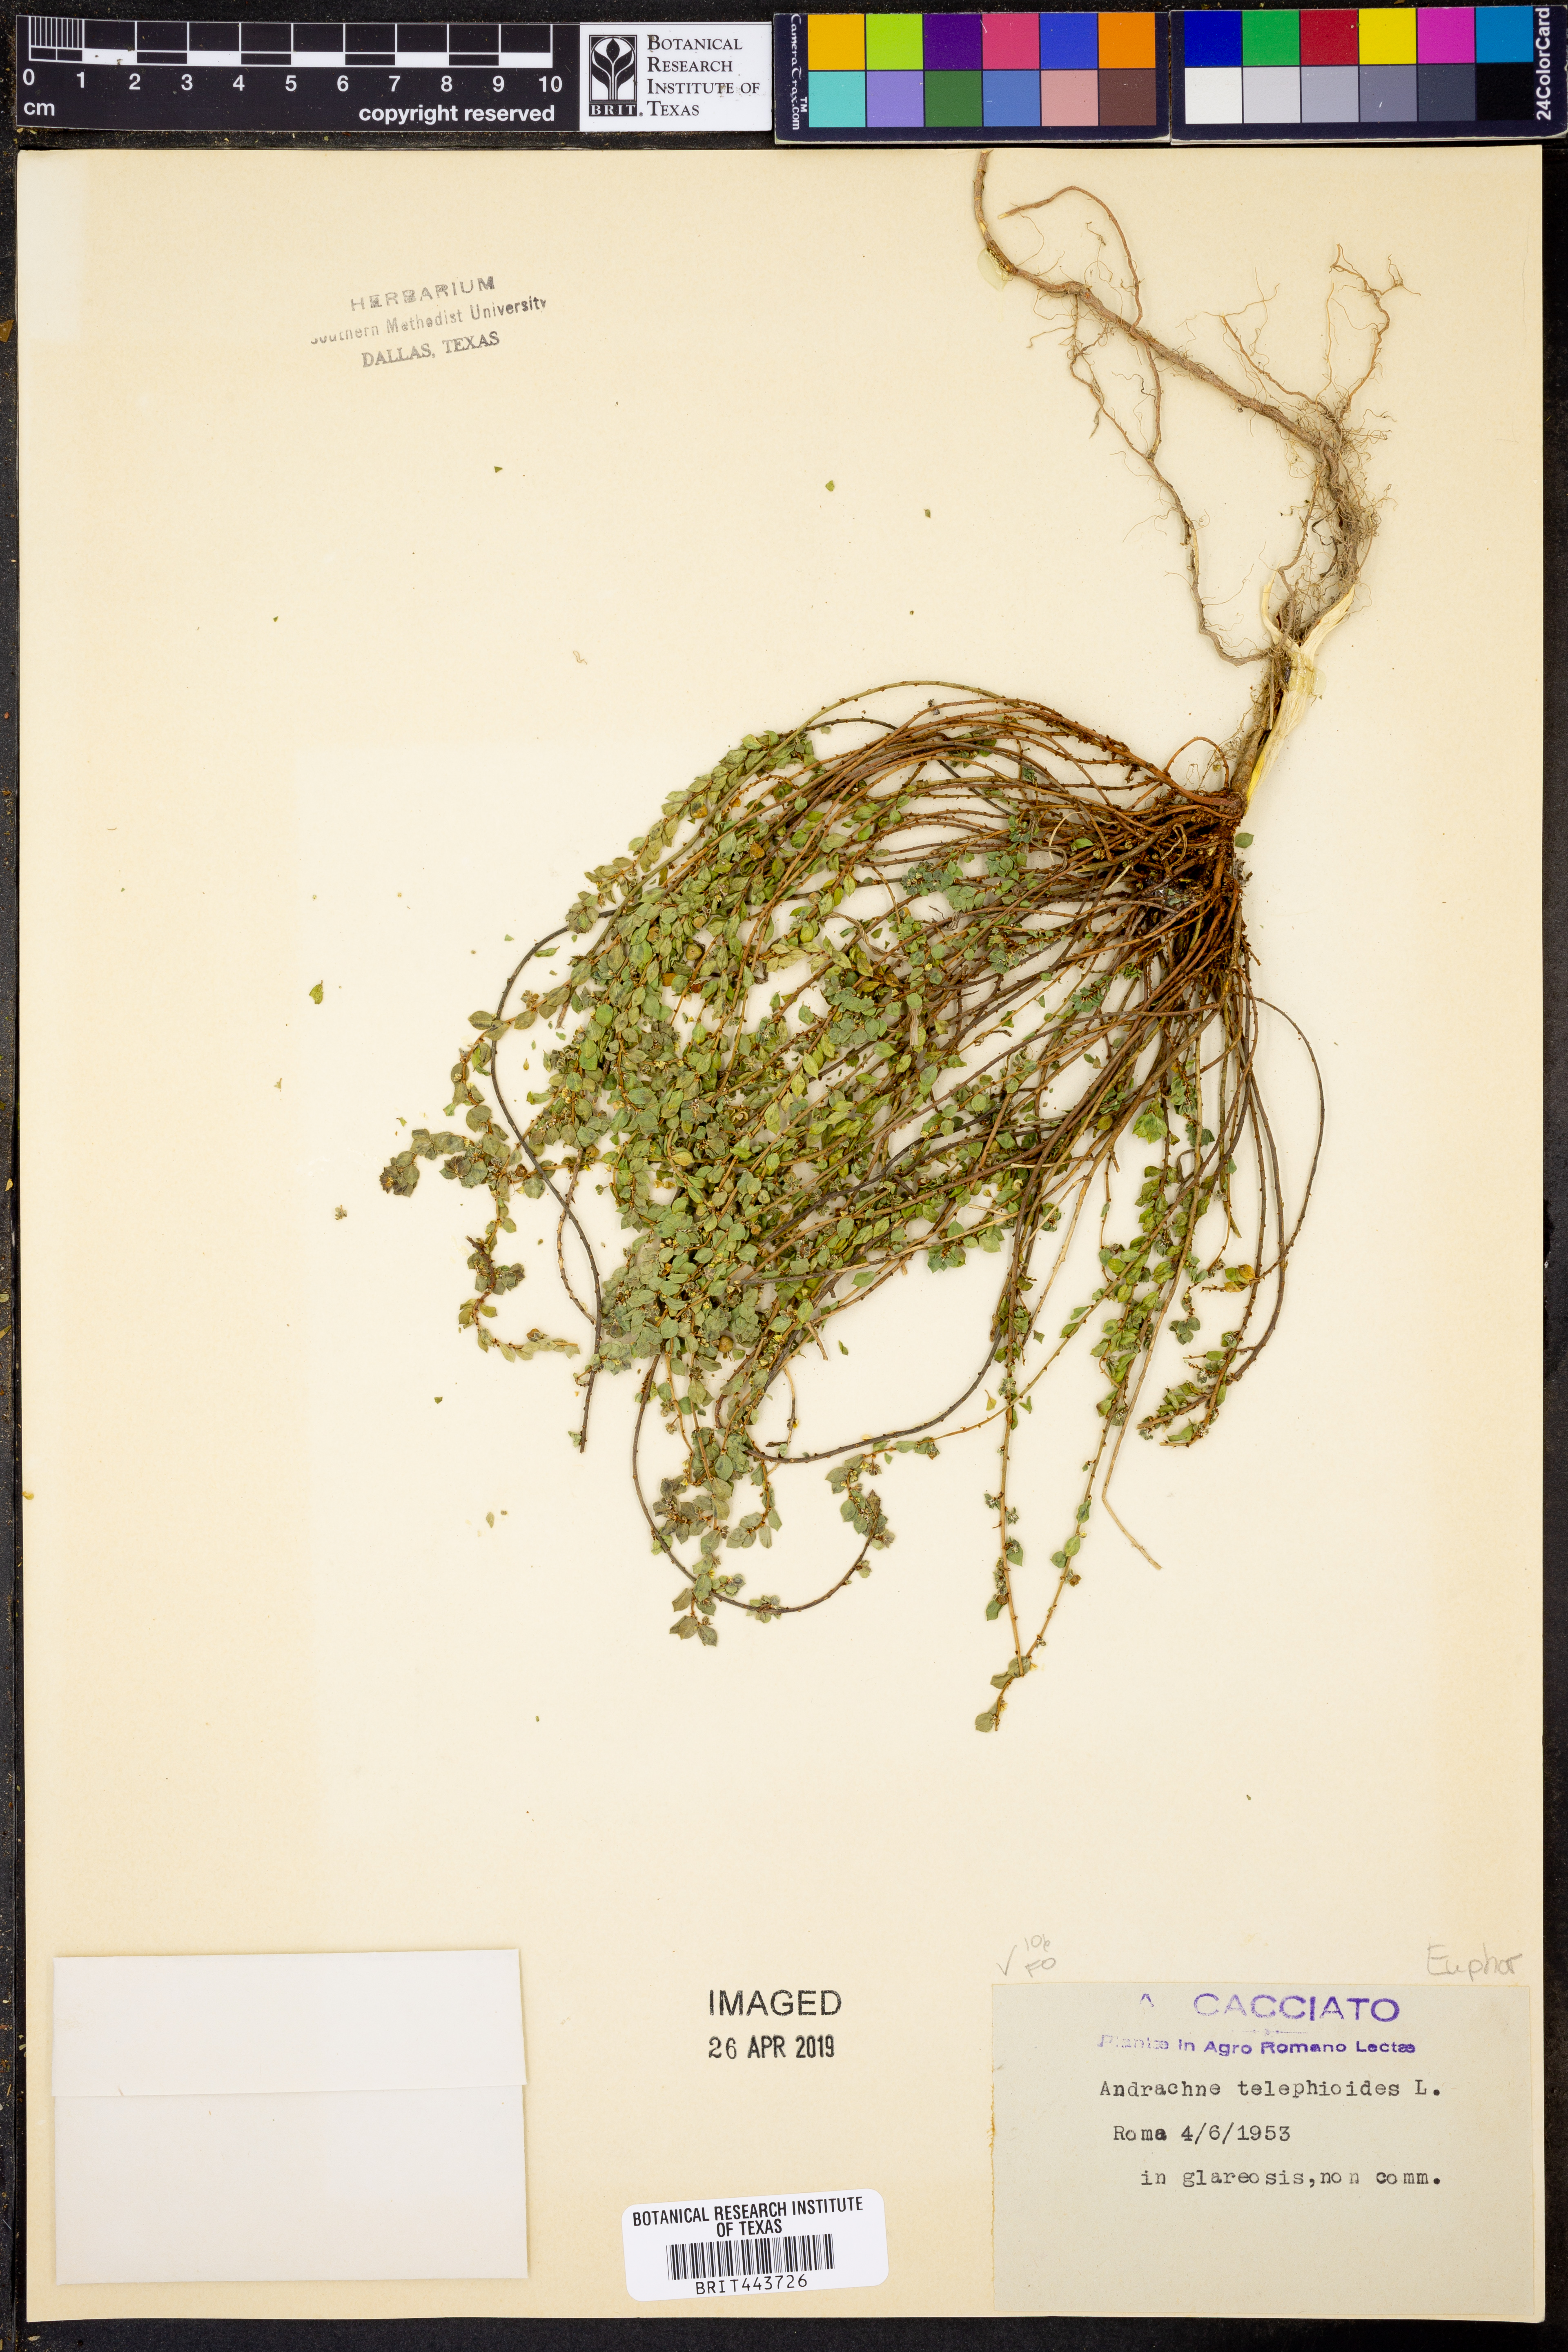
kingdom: Plantae
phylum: Tracheophyta
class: Magnoliopsida
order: Malpighiales
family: Phyllanthaceae
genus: Andrachne
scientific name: Andrachne telephioides
